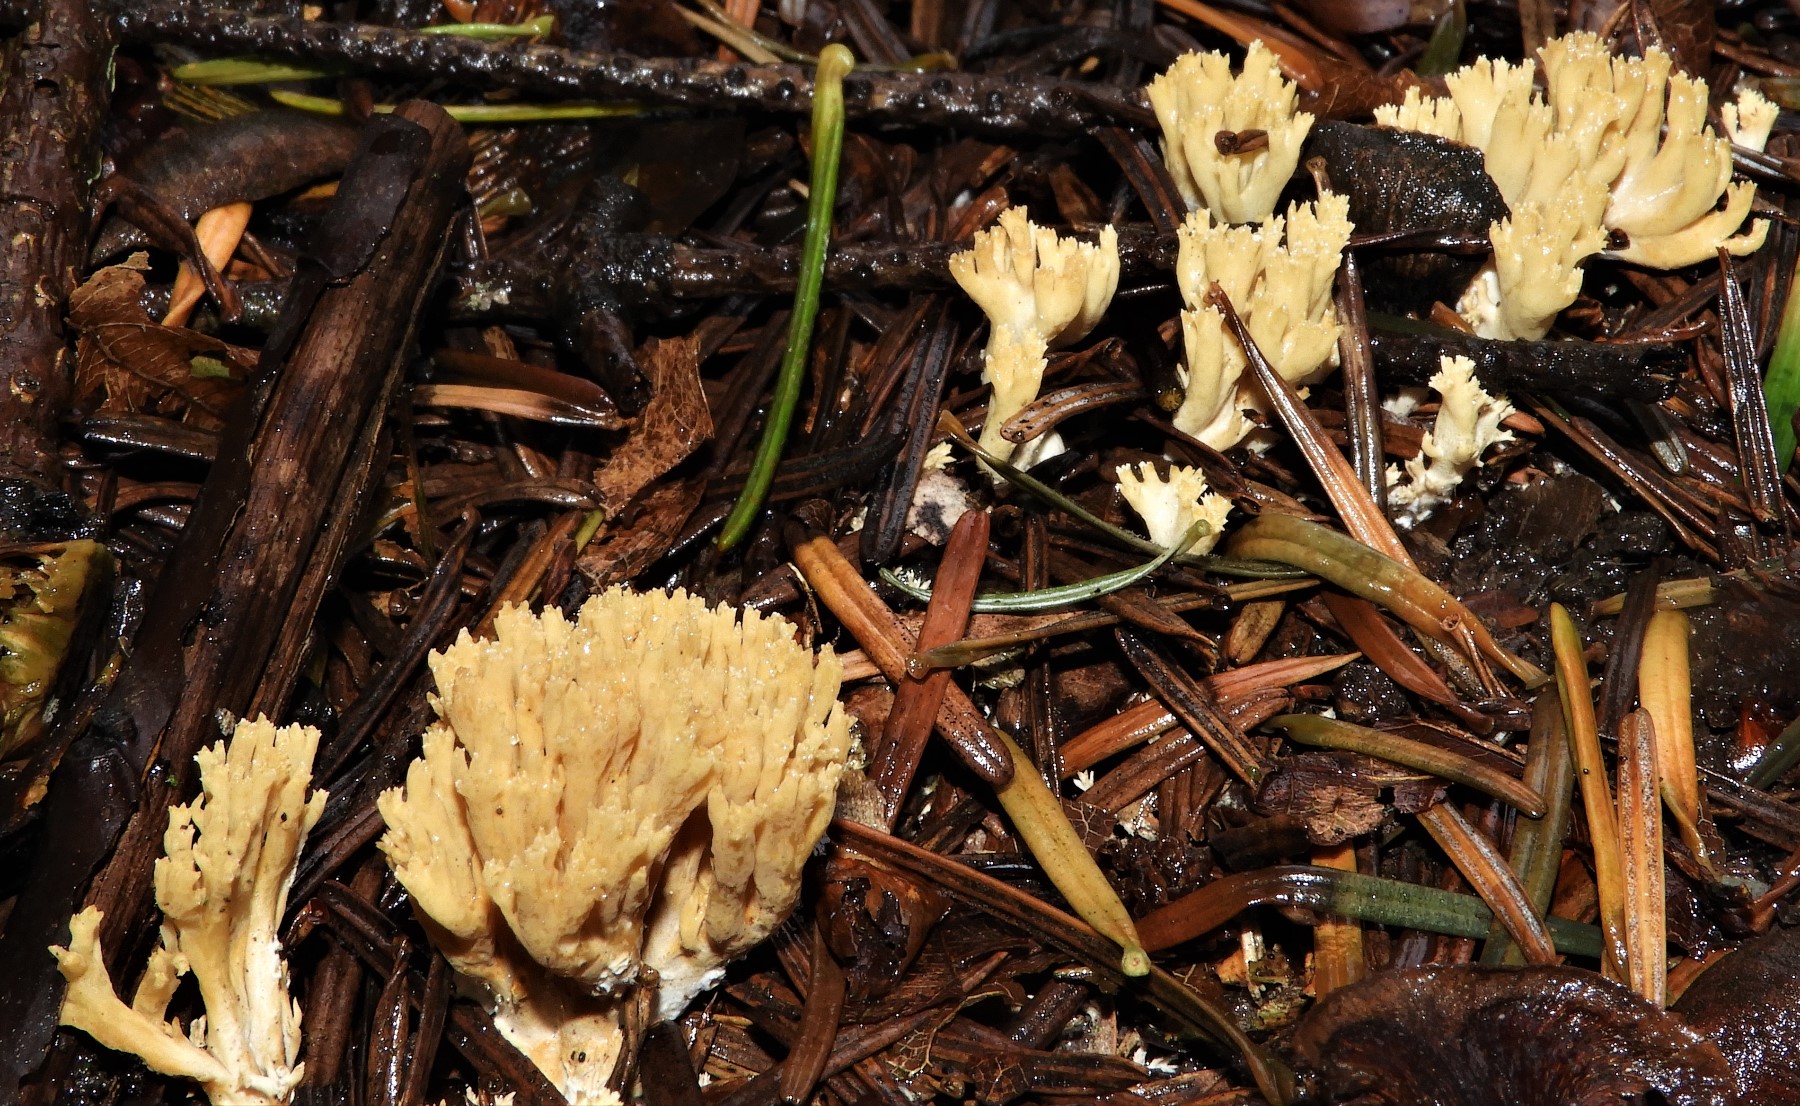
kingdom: Fungi
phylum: Basidiomycota
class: Agaricomycetes
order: Gomphales
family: Gomphaceae
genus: Phaeoclavulina
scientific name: Phaeoclavulina
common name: koralsvamp
